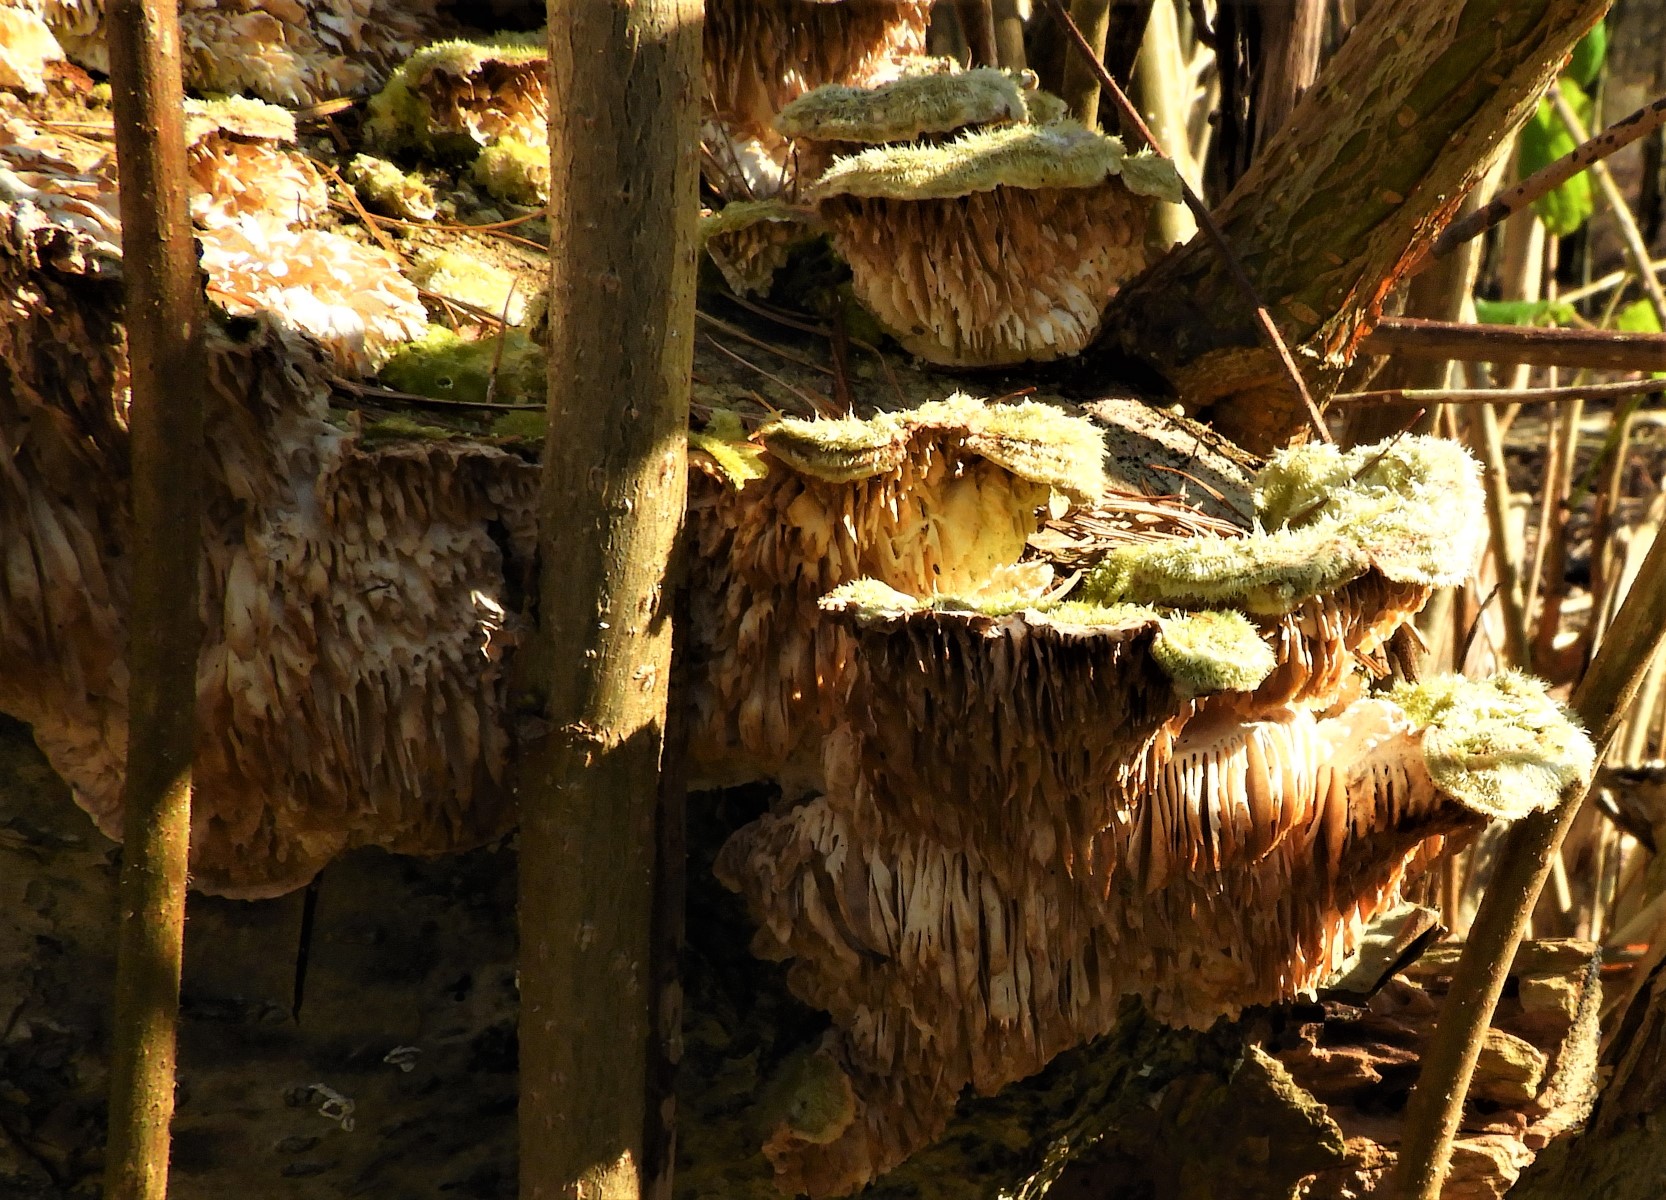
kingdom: Fungi
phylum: Basidiomycota
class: Agaricomycetes
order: Polyporales
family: Polyporaceae
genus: Lenzites
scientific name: Lenzites betulinus
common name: birke-læderporesvamp
